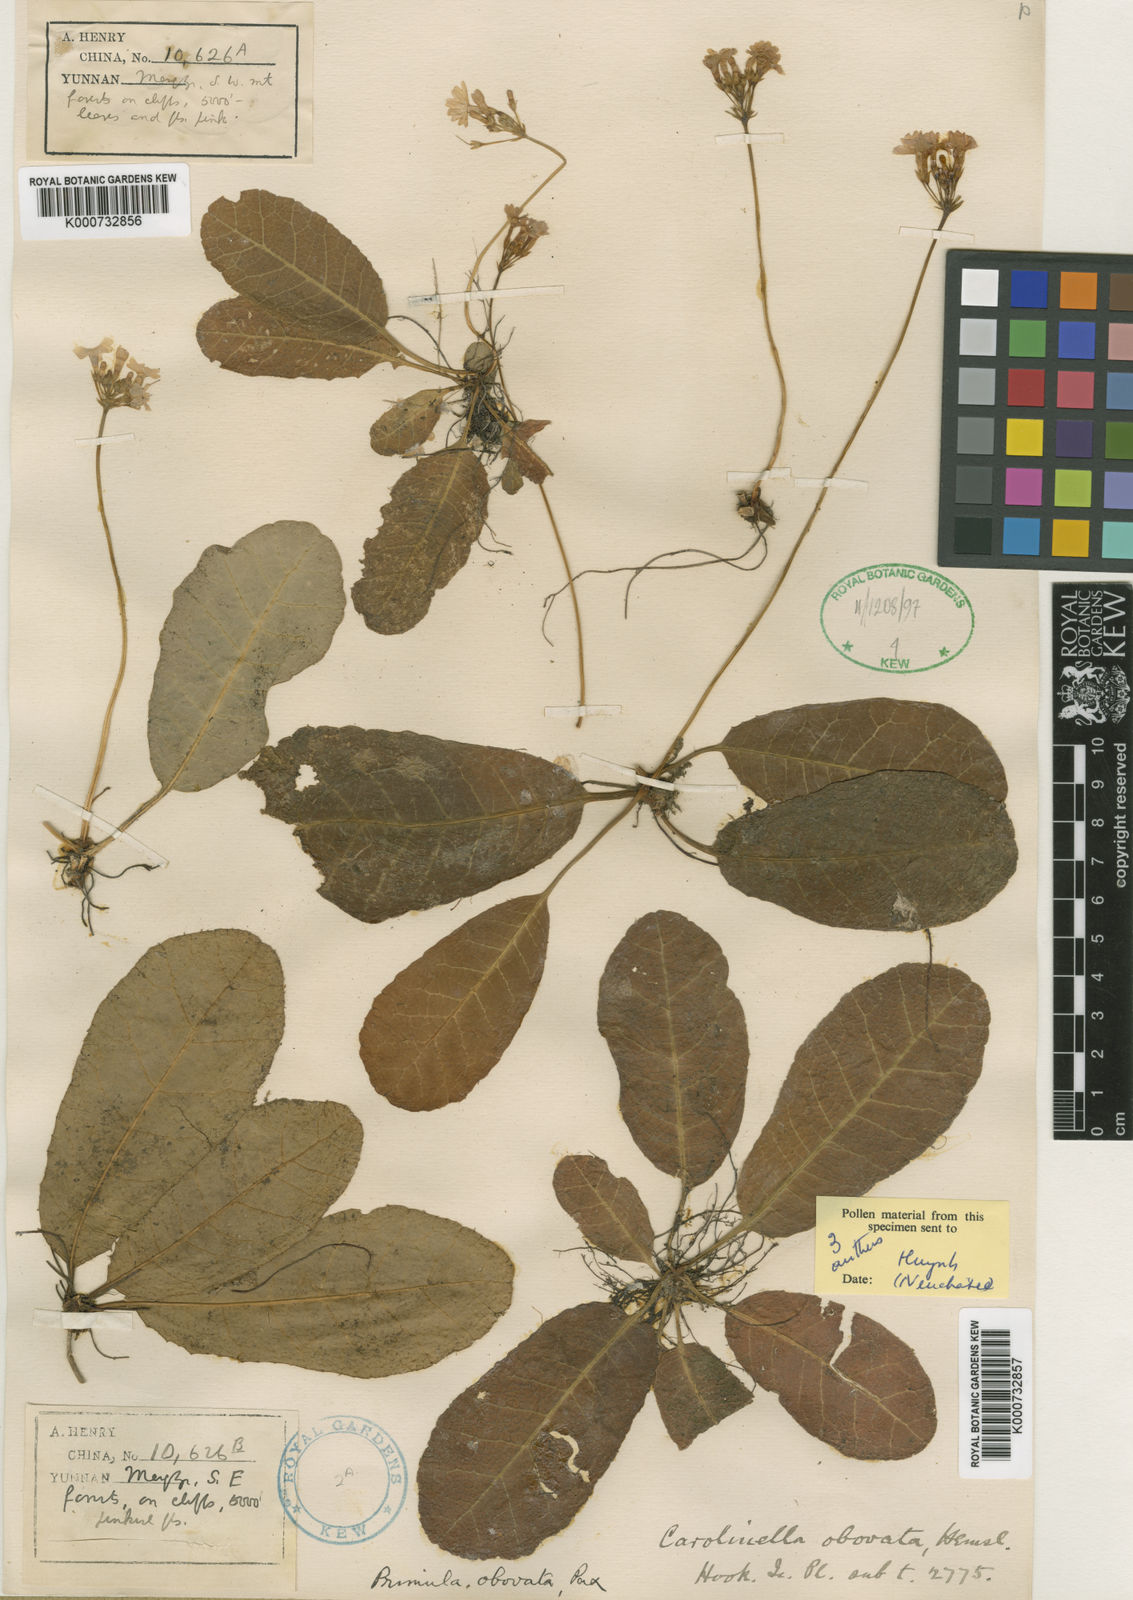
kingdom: Plantae
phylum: Tracheophyta
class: Magnoliopsida
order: Ericales
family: Primulaceae
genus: Primula
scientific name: Primula
